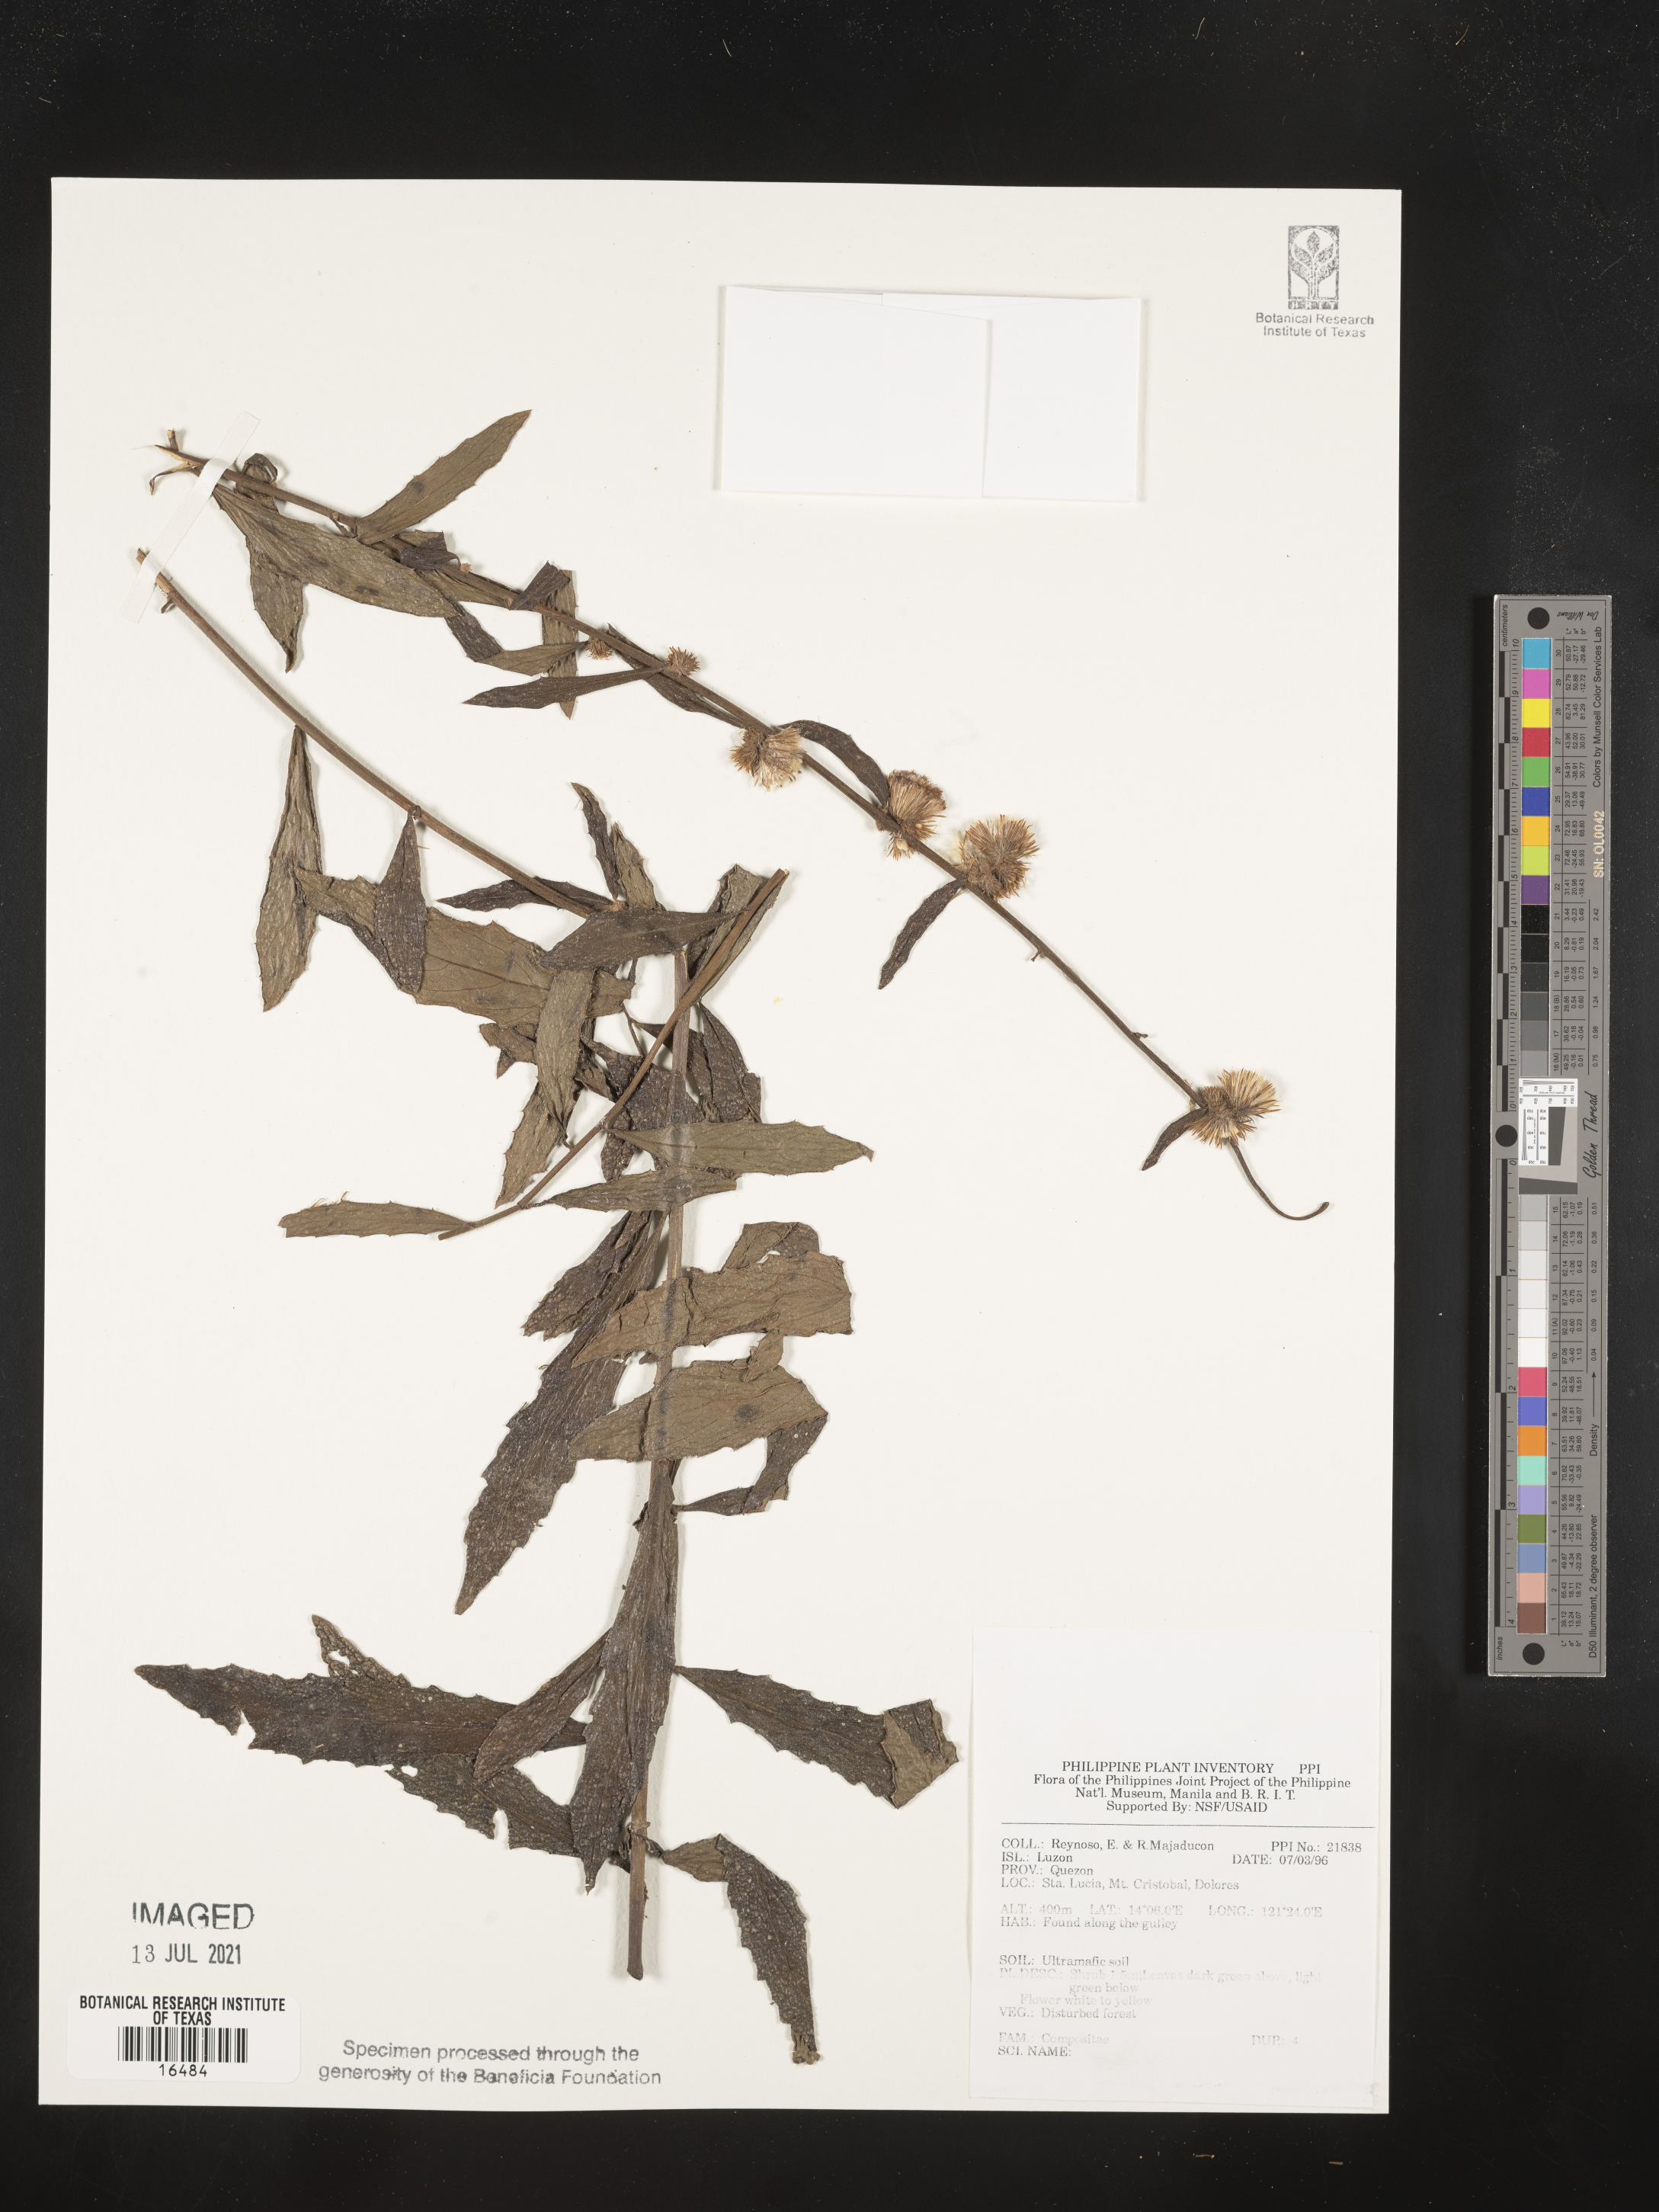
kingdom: Plantae
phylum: Tracheophyta
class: Magnoliopsida
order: Asterales
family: Asteraceae
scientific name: Asteraceae
